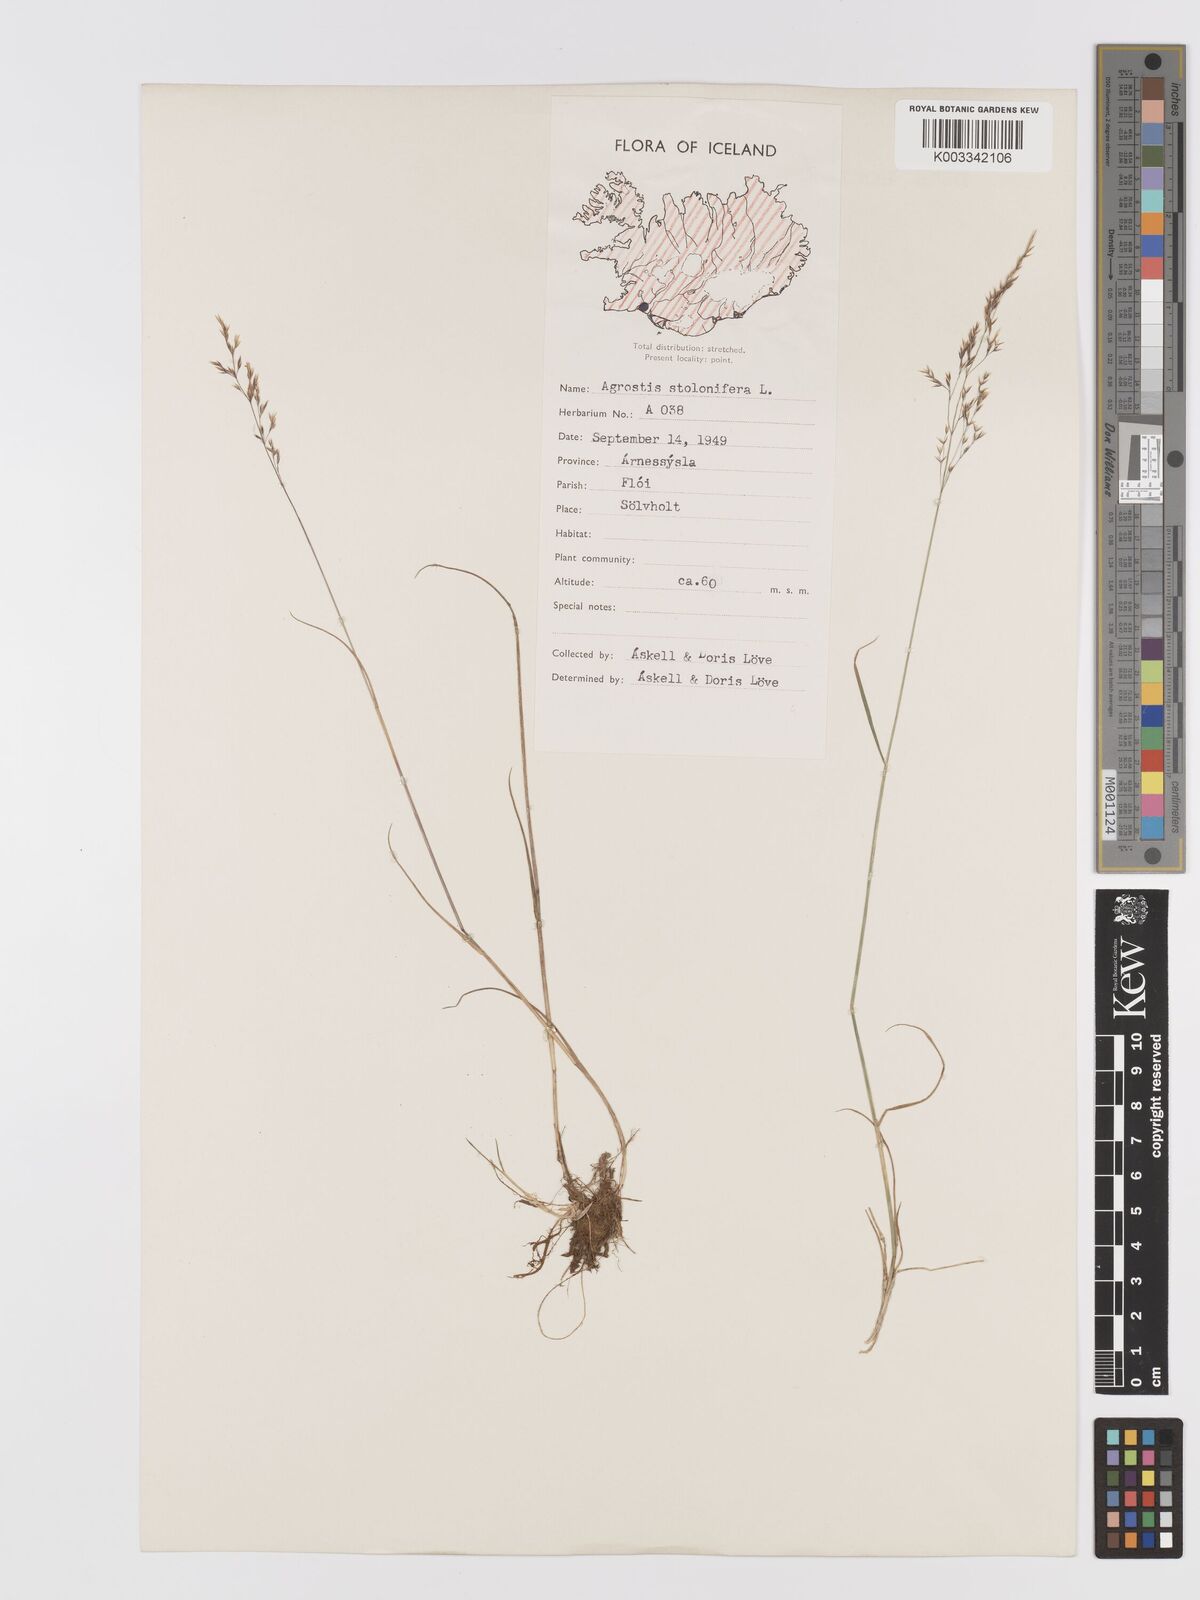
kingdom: Plantae
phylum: Tracheophyta
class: Liliopsida
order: Poales
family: Poaceae
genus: Agrostis
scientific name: Agrostis stolonifera
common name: Creeping bentgrass
